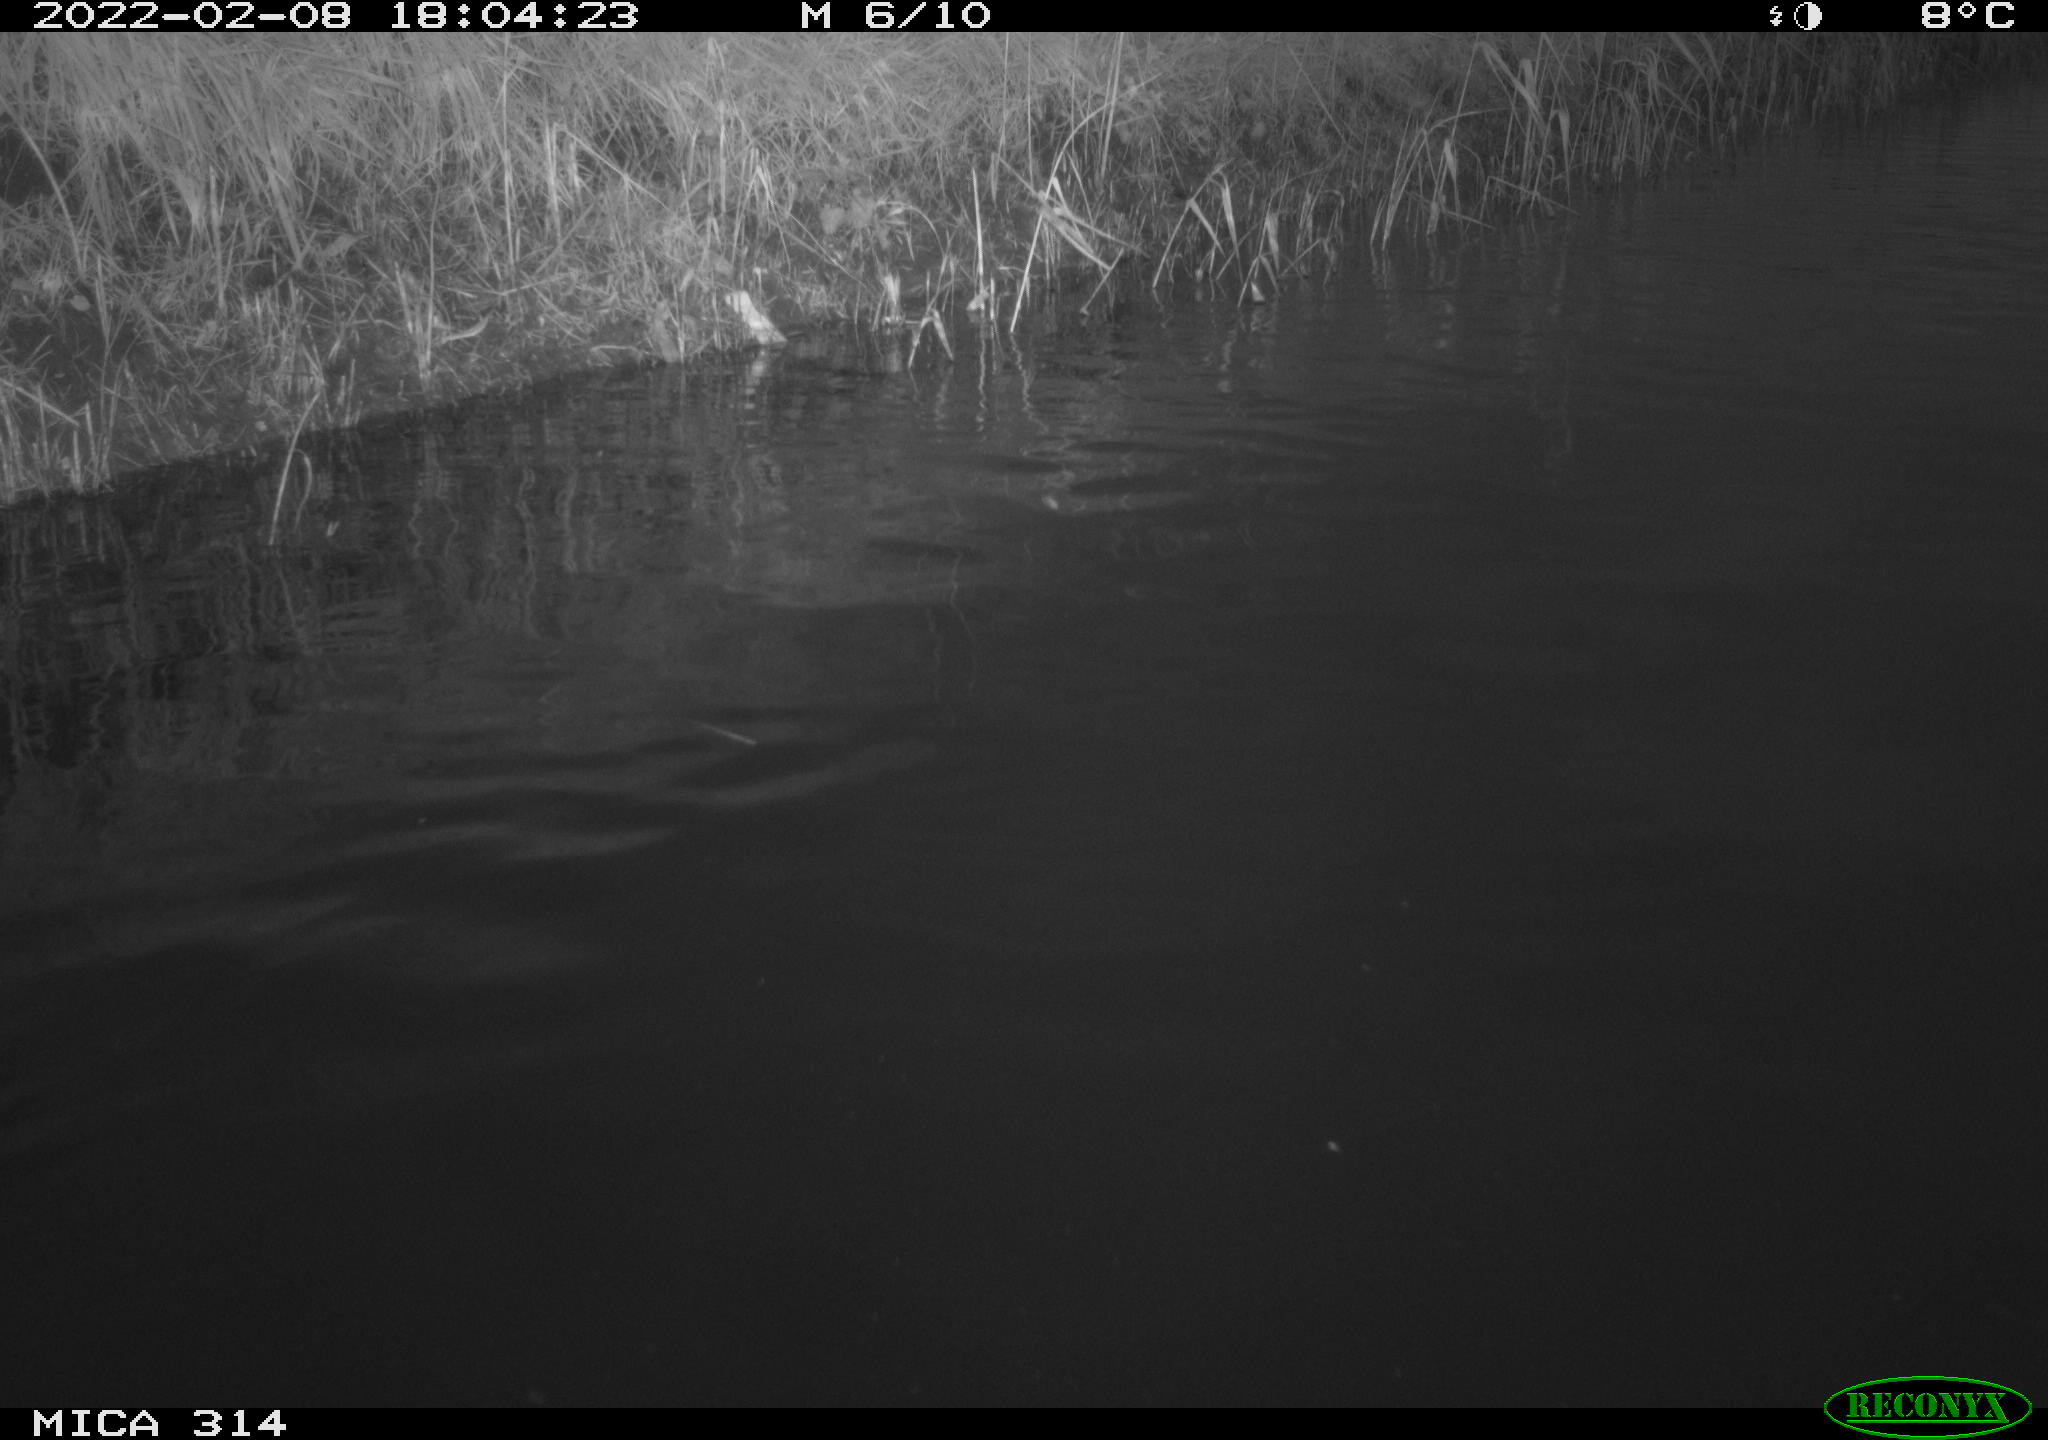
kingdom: Animalia
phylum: Chordata
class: Aves
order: Gruiformes
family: Rallidae
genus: Gallinula
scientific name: Gallinula chloropus
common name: Common moorhen
